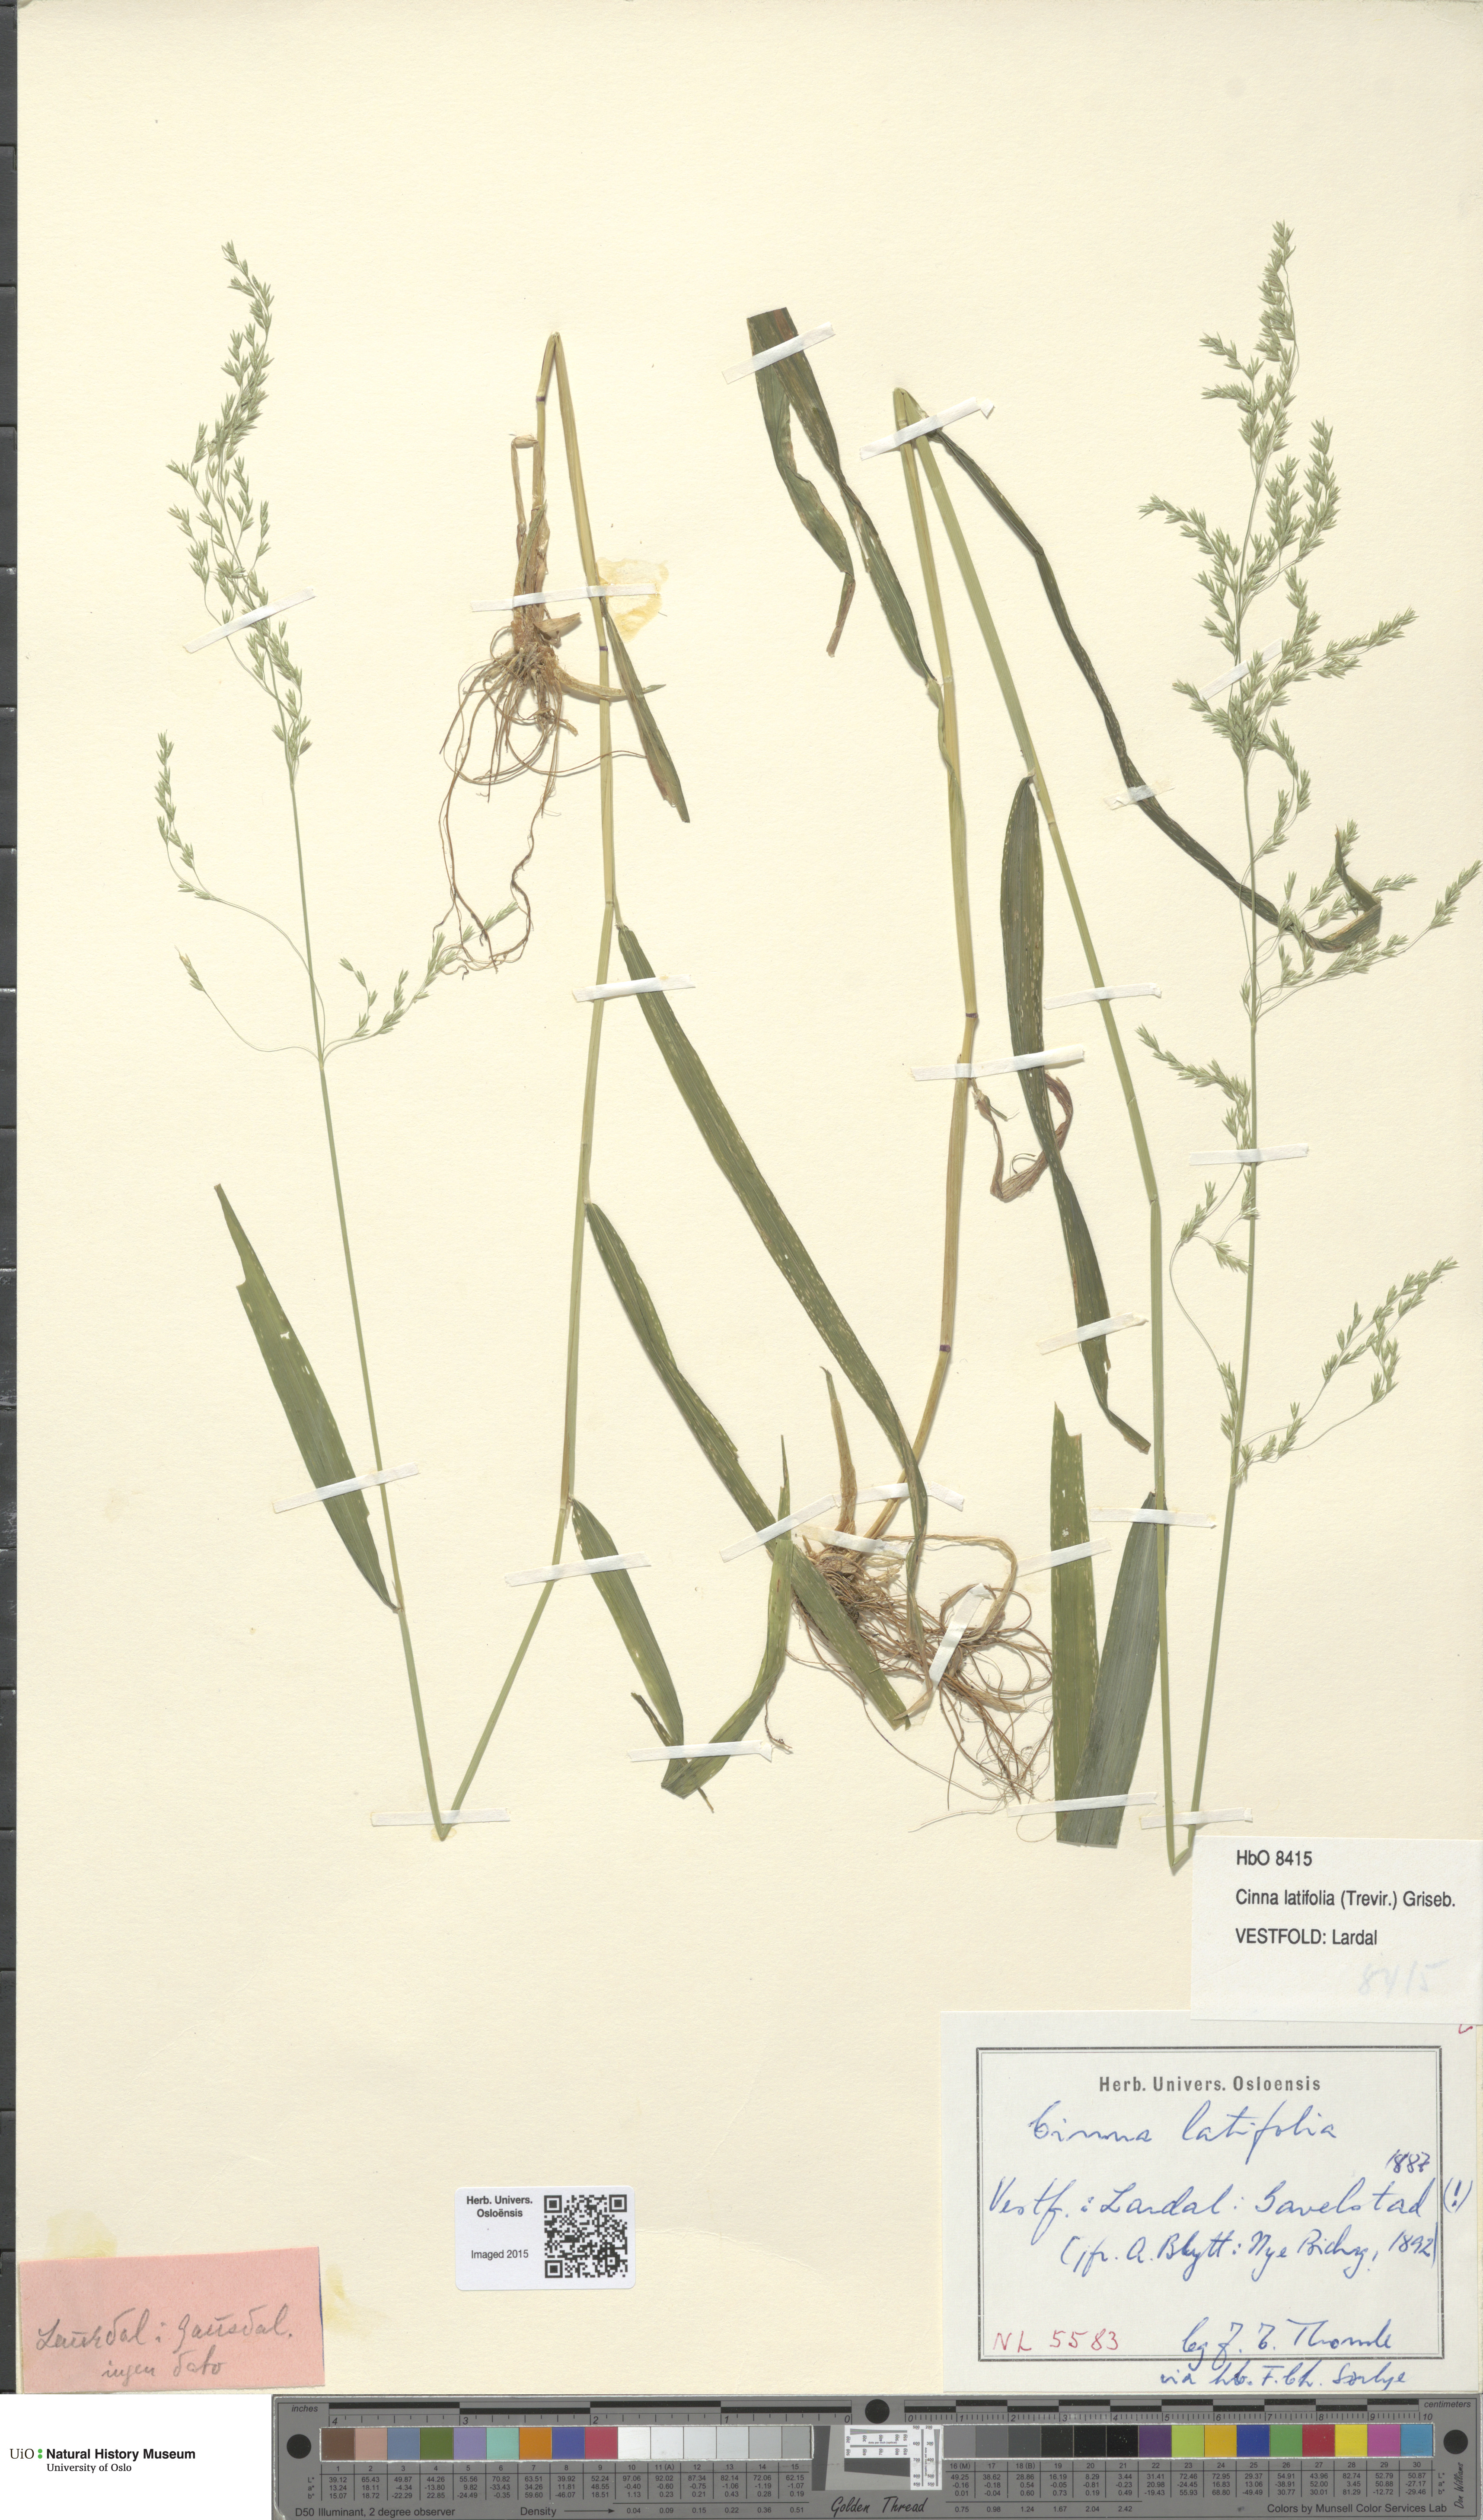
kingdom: Plantae
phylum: Tracheophyta
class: Liliopsida
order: Poales
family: Poaceae
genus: Cinna
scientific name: Cinna latifolia
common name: Drooping woodreed
